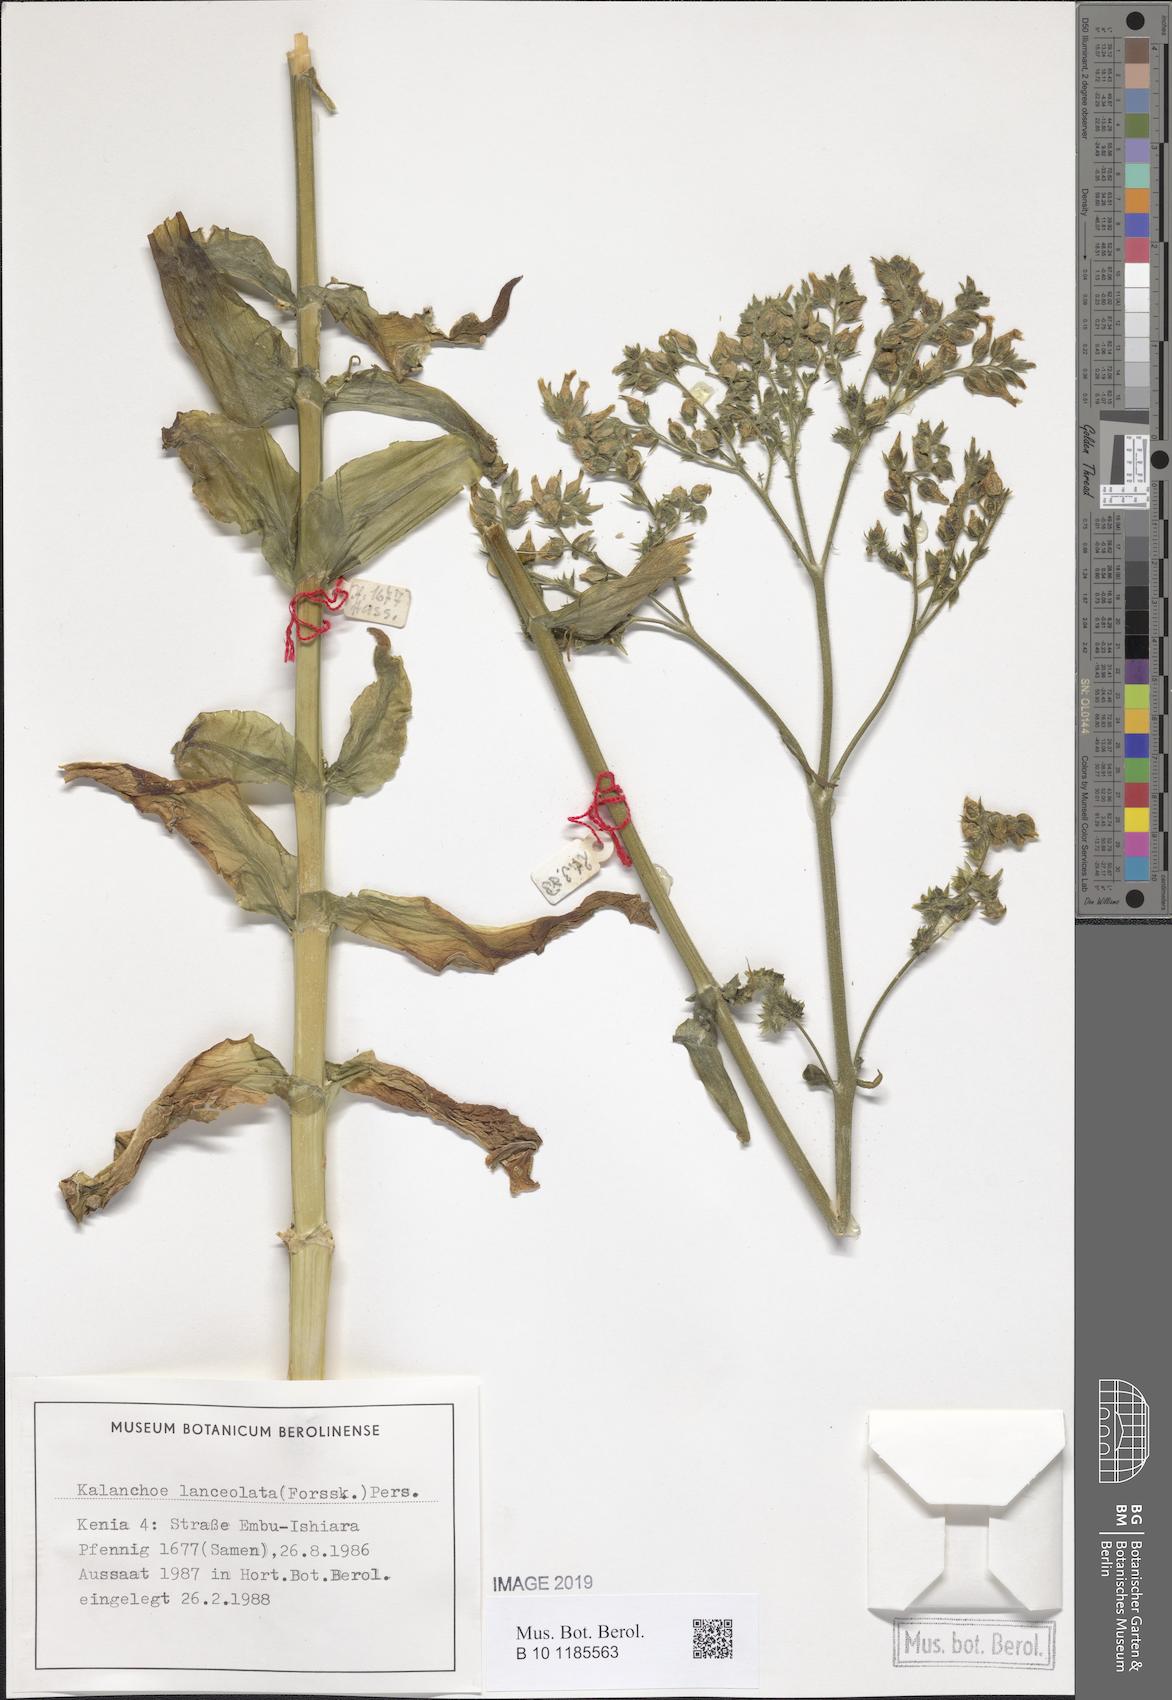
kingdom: Plantae
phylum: Tracheophyta
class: Magnoliopsida
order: Saxifragales
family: Crassulaceae
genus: Kalanchoe
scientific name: Kalanchoe lanceolata
